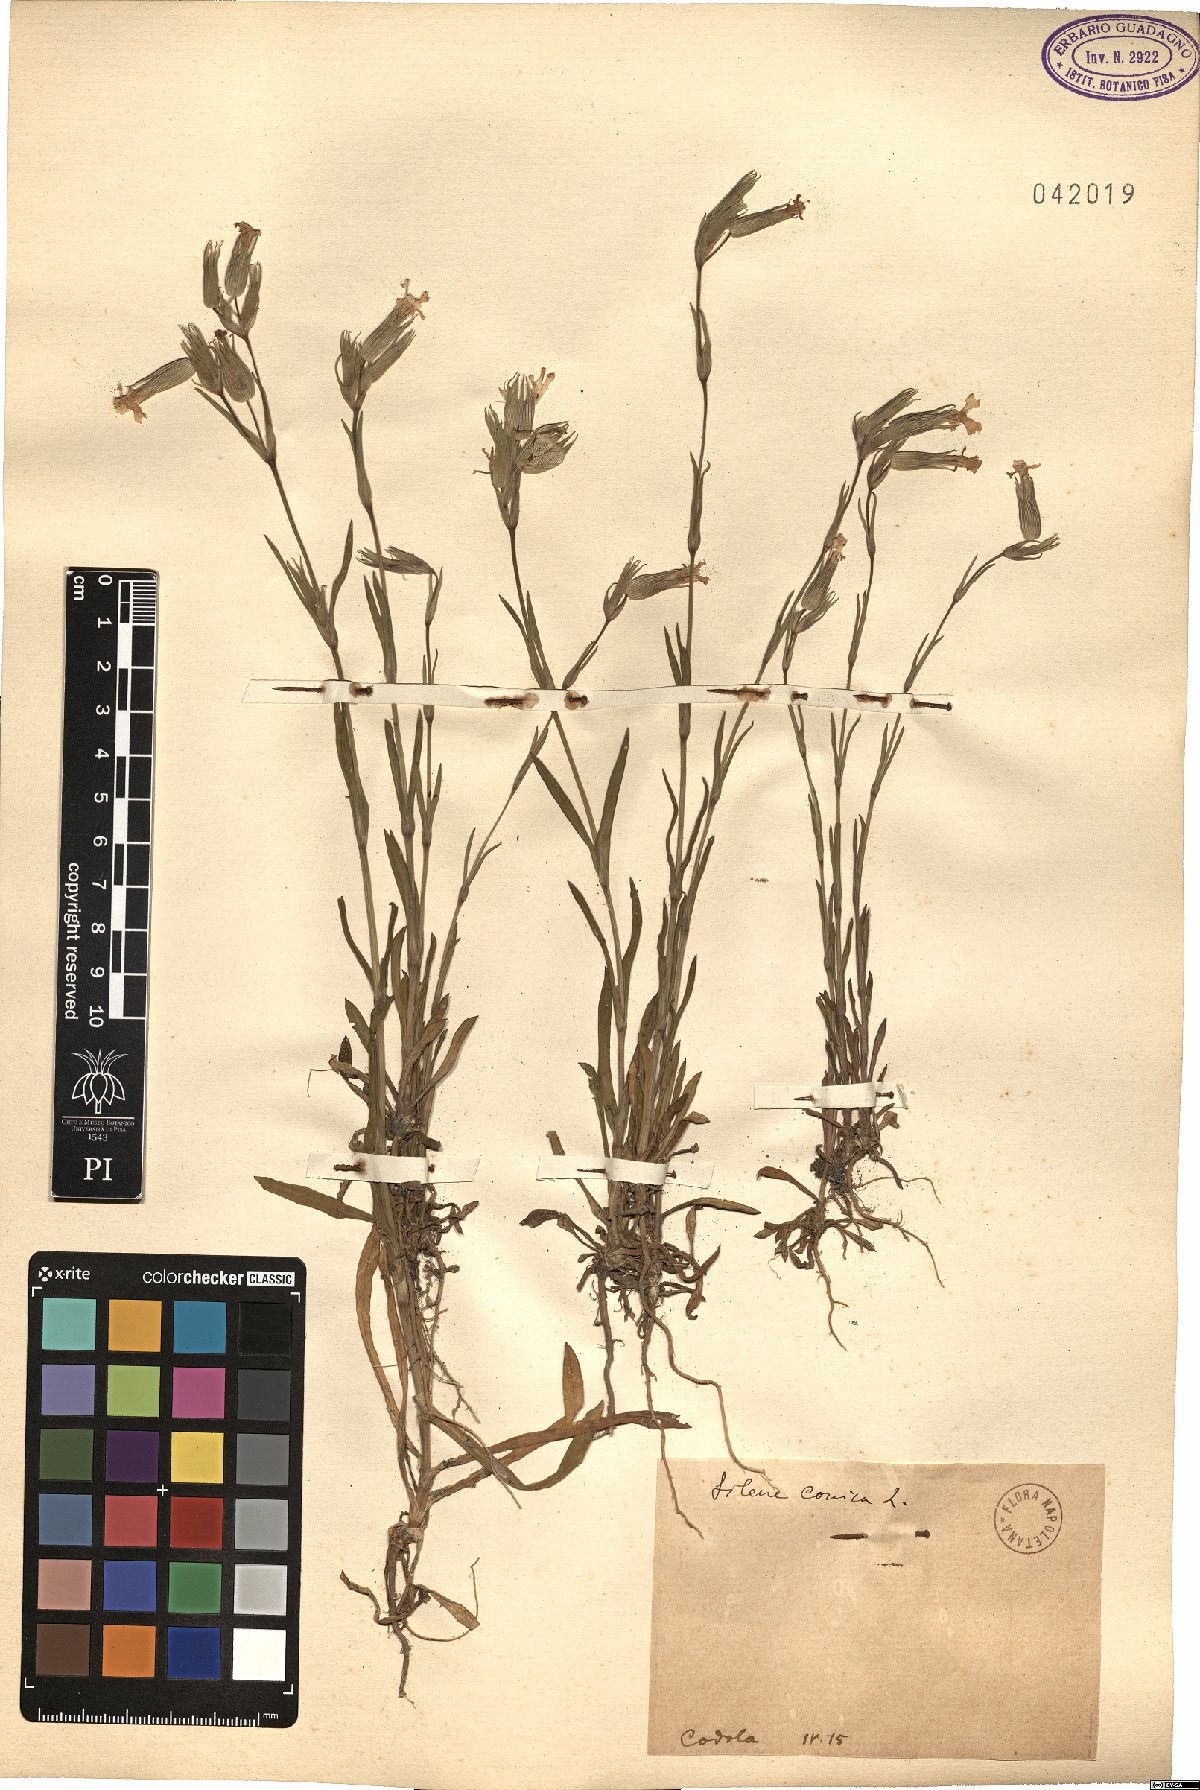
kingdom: Plantae
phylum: Tracheophyta
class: Magnoliopsida
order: Caryophyllales
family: Caryophyllaceae
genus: Silene
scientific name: Silene conica
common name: Sand catchfly
